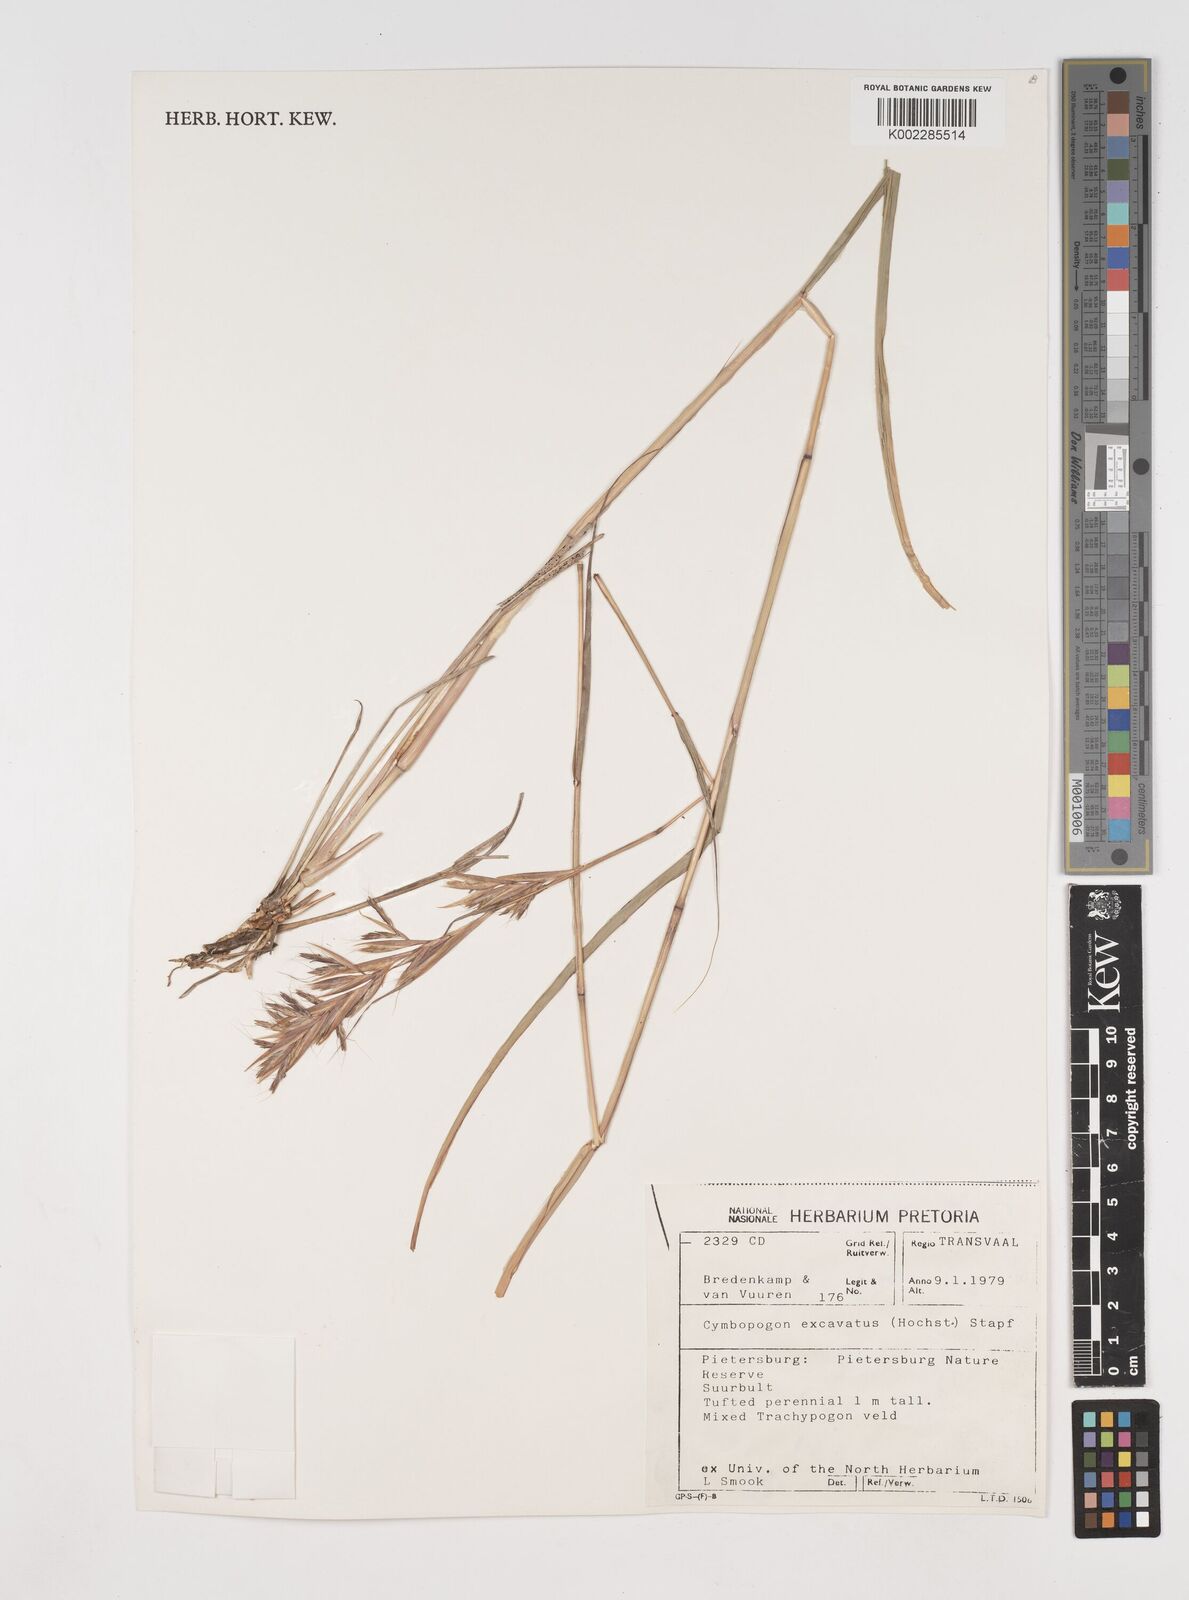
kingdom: Plantae
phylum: Tracheophyta
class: Liliopsida
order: Poales
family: Poaceae
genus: Cymbopogon
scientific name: Cymbopogon caesius
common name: Kachi grass
